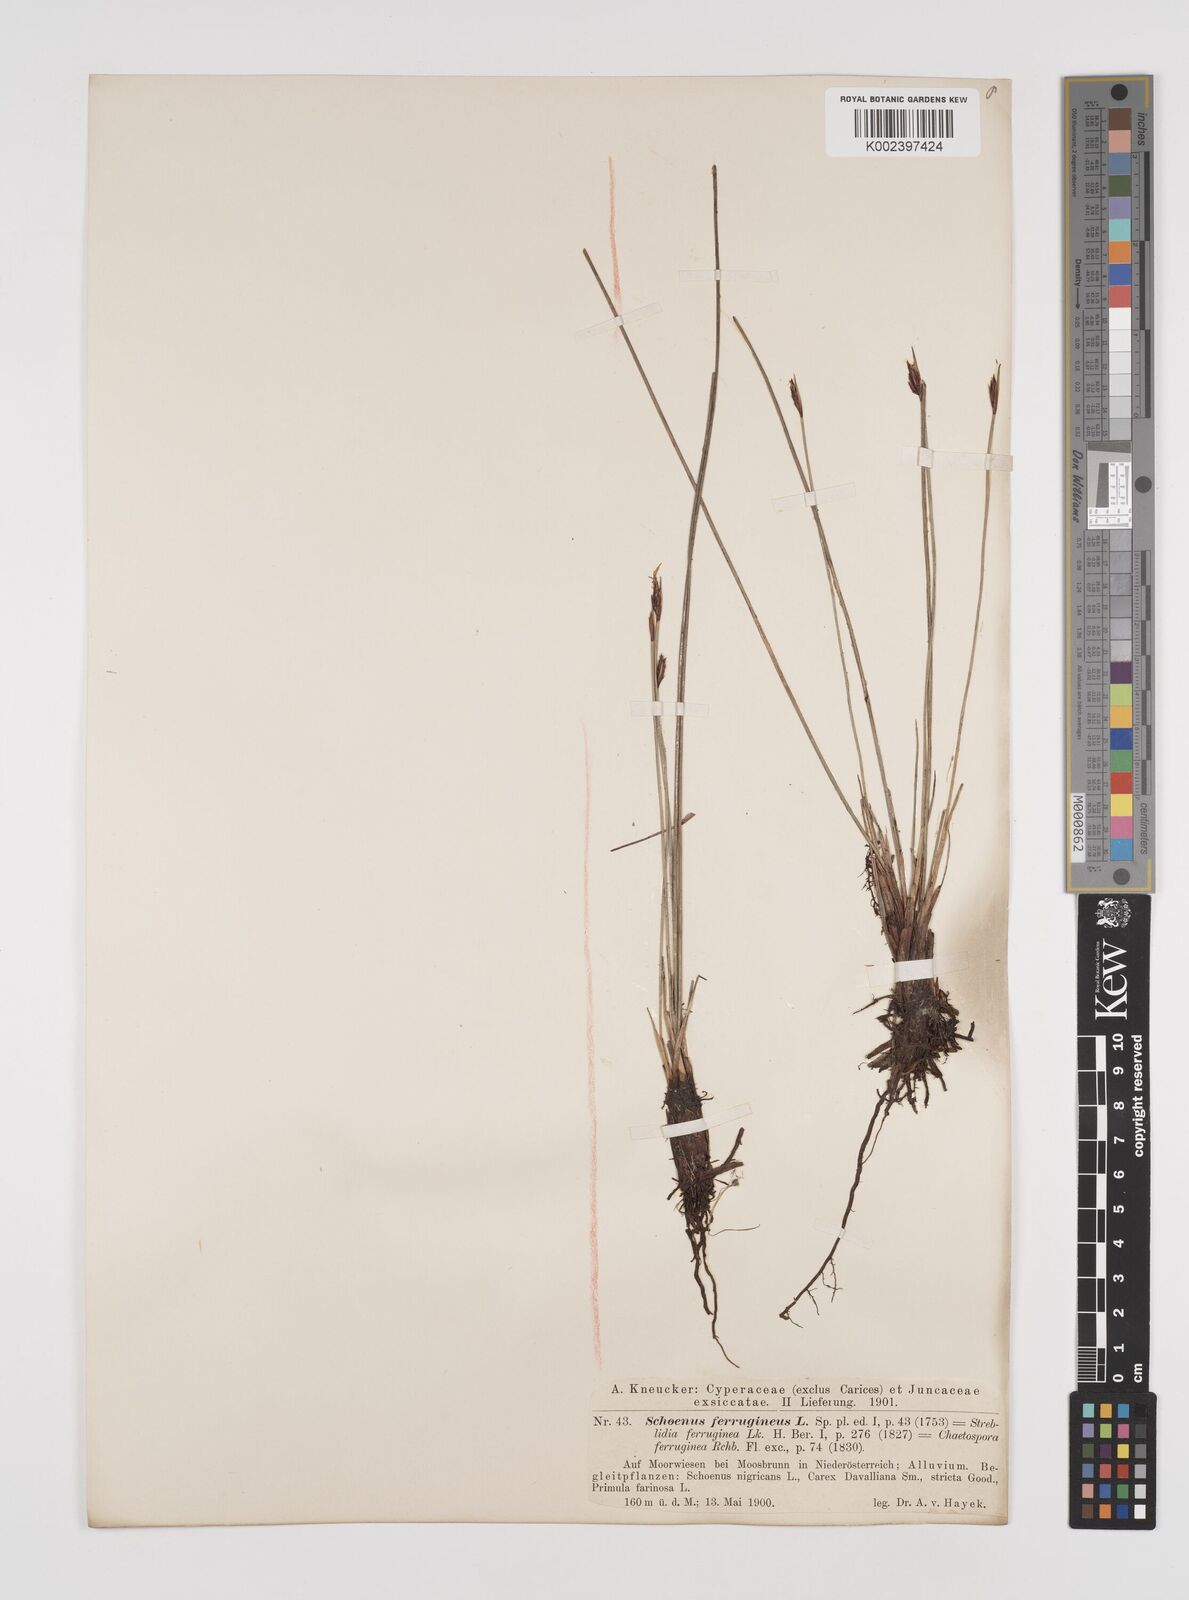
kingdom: Plantae
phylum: Tracheophyta
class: Liliopsida
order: Poales
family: Cyperaceae
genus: Schoenus
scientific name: Schoenus ferrugineus
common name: Brown bog-rush
